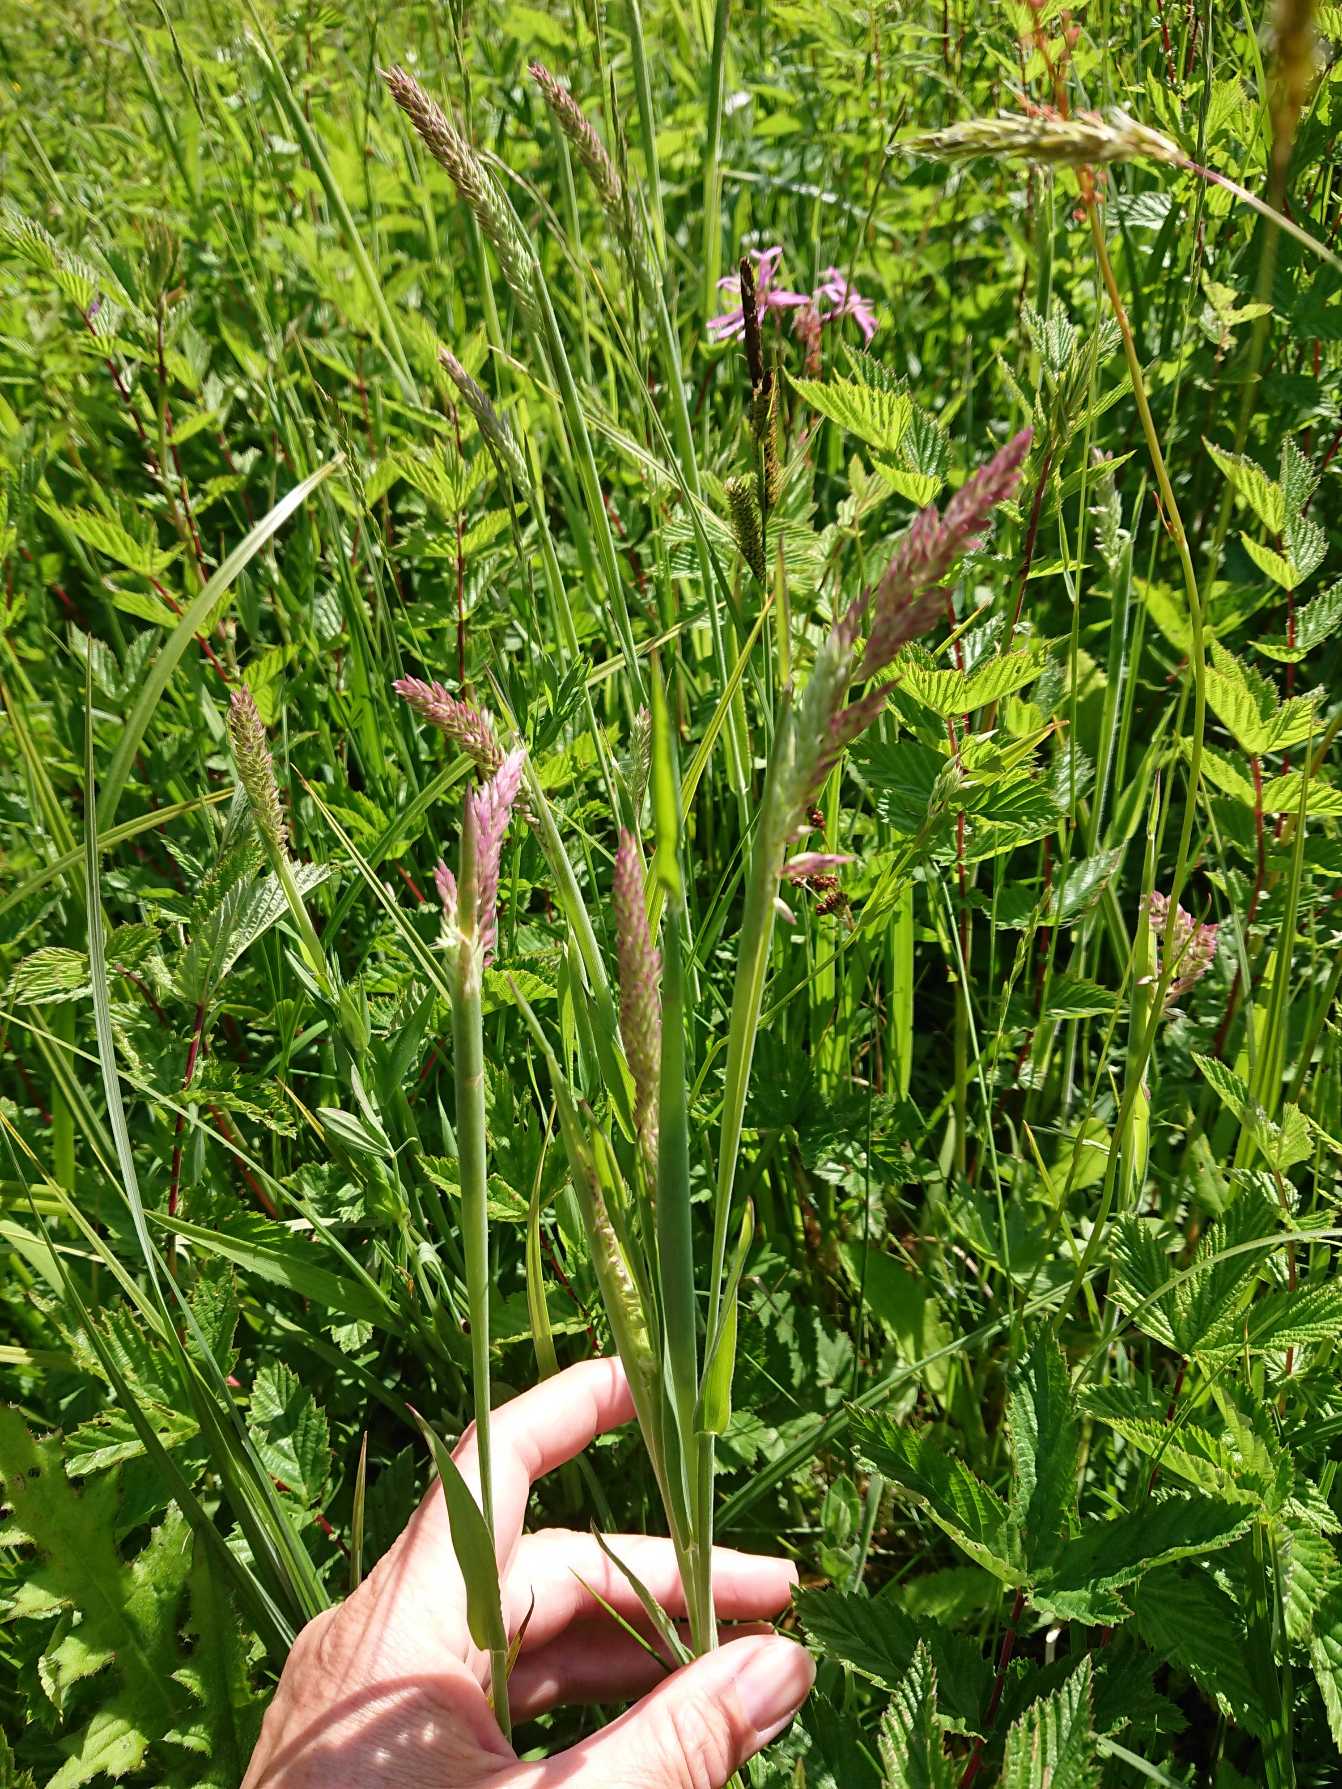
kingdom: Plantae
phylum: Tracheophyta
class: Liliopsida
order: Poales
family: Poaceae
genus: Holcus
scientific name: Holcus lanatus
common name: Fløjlsgræs
